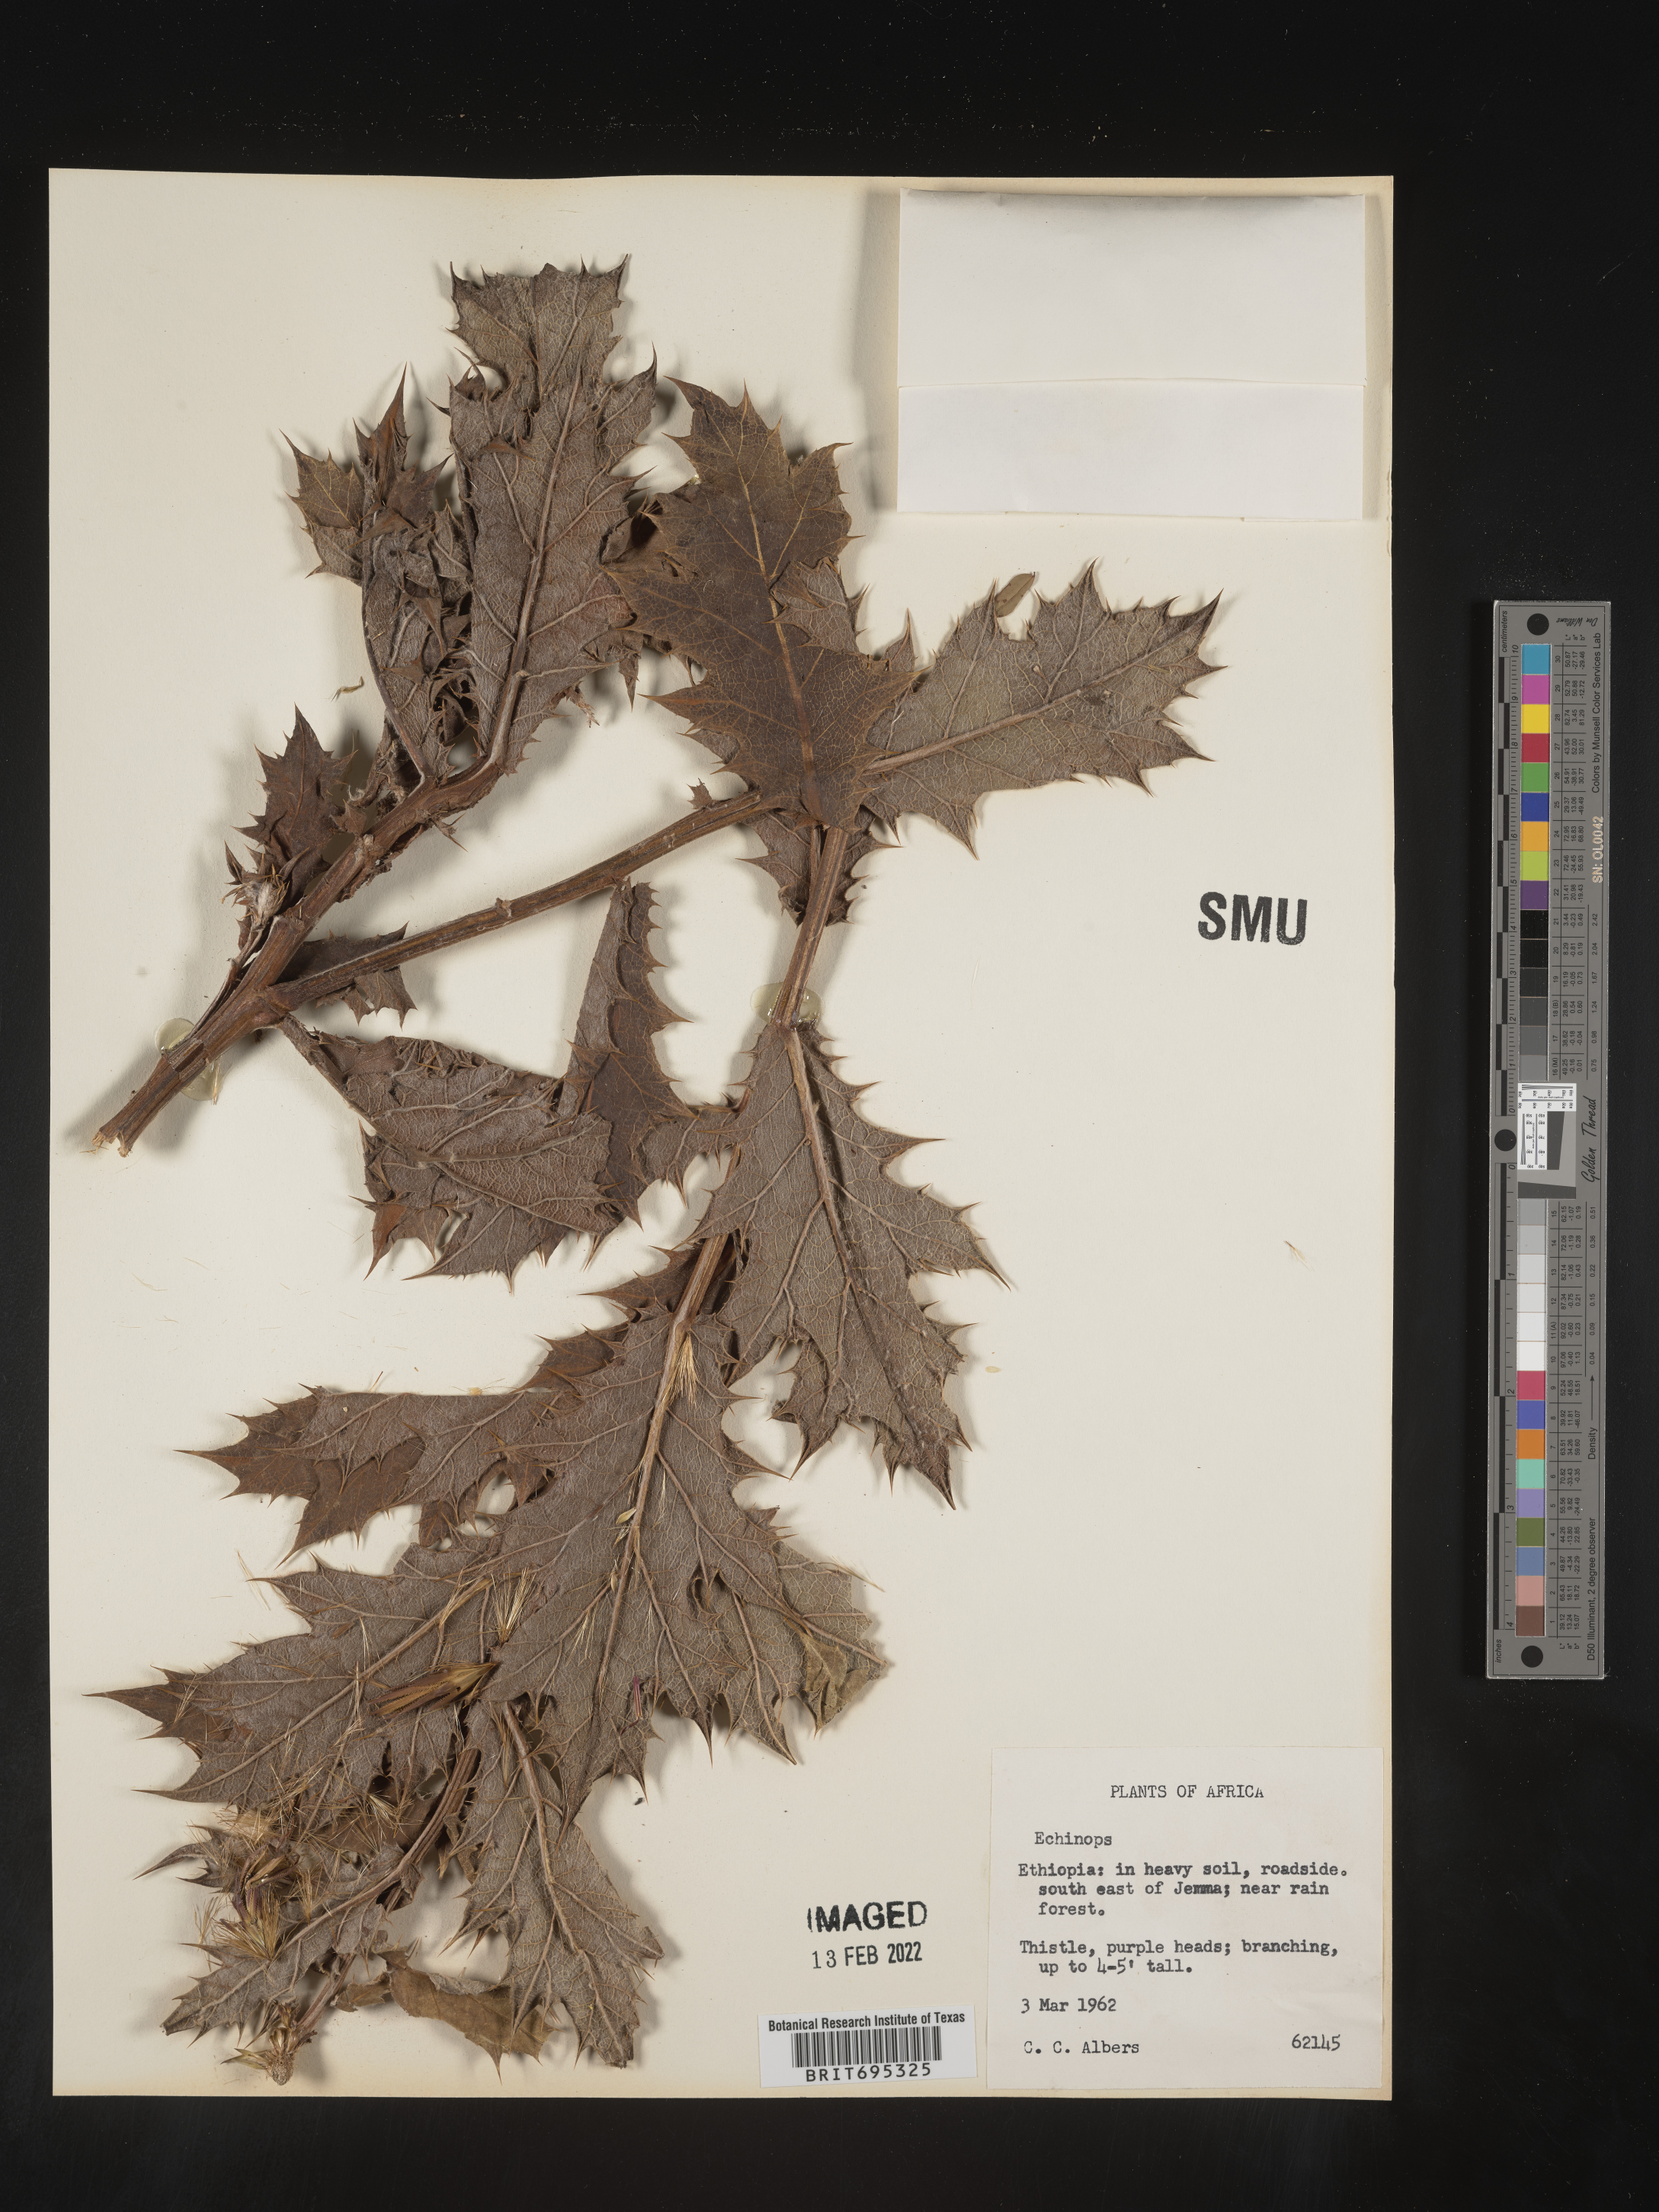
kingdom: Plantae
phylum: Tracheophyta
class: Magnoliopsida
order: Asterales
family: Asteraceae
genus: Echinops
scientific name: Echinops
